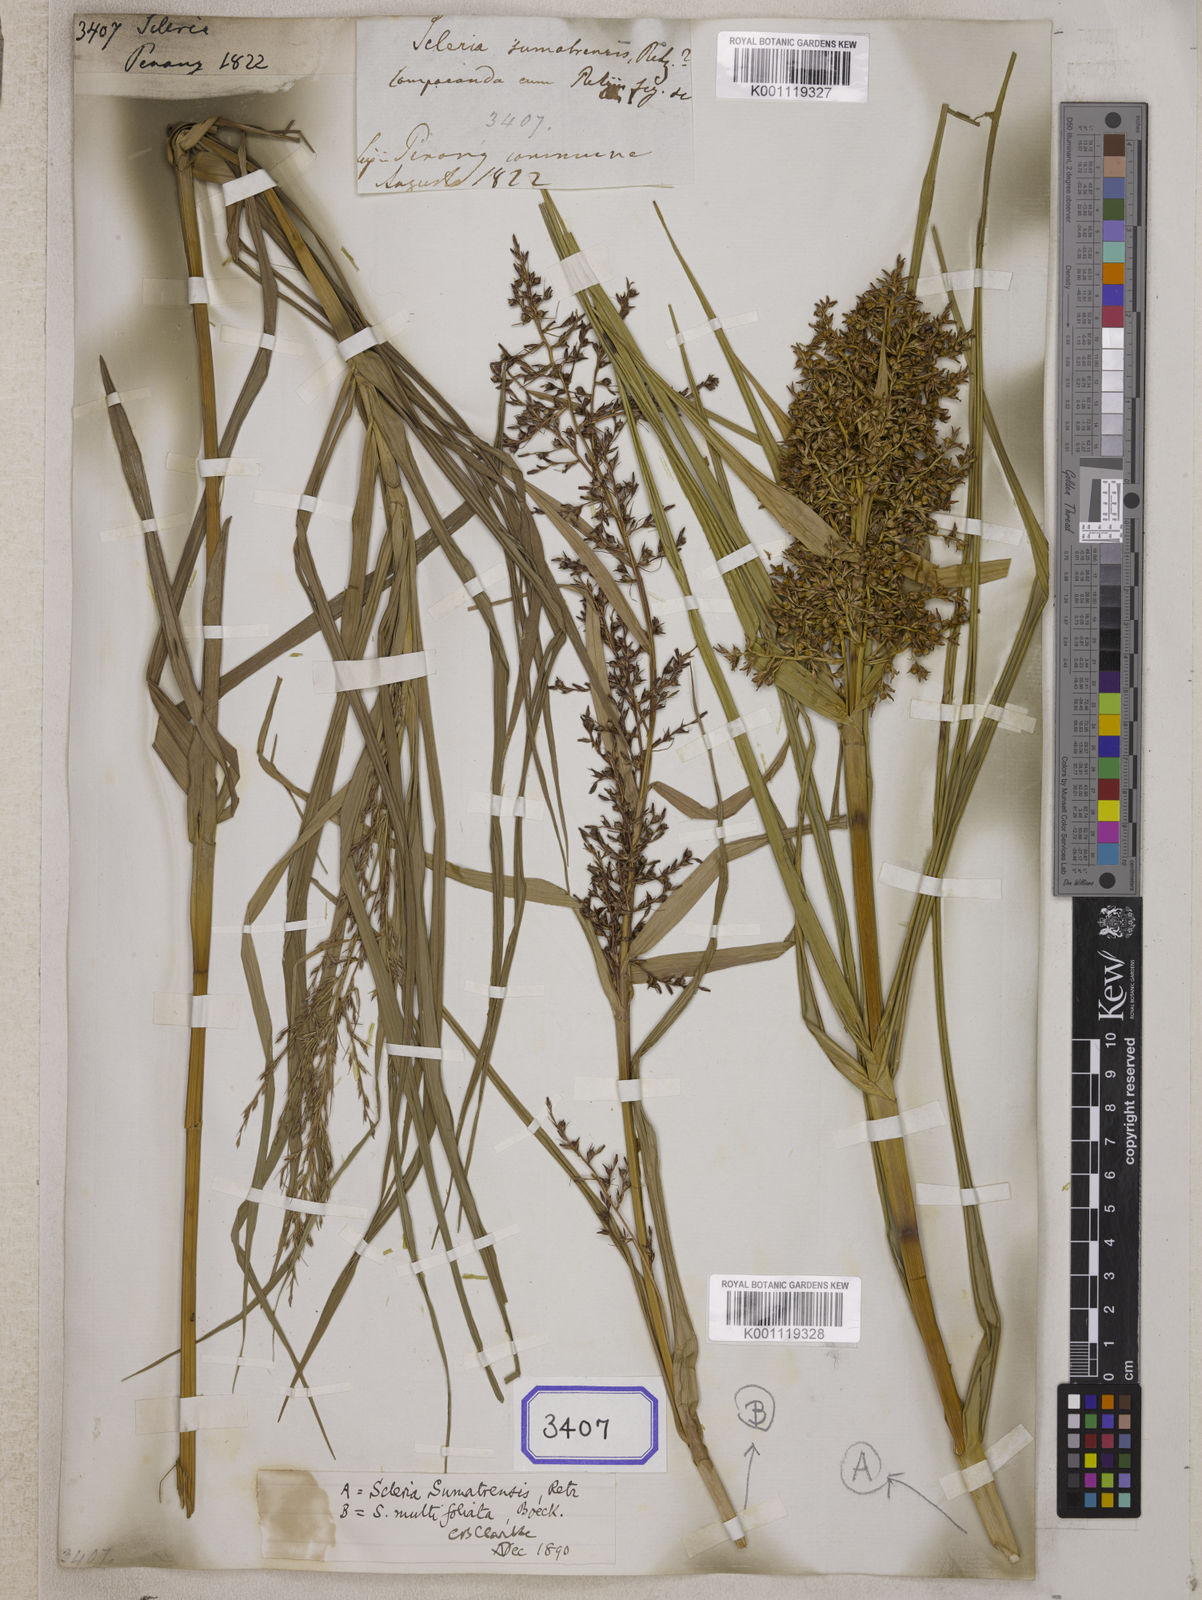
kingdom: Plantae
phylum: Tracheophyta
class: Liliopsida
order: Poales
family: Cyperaceae
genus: Scleria
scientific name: Scleria
